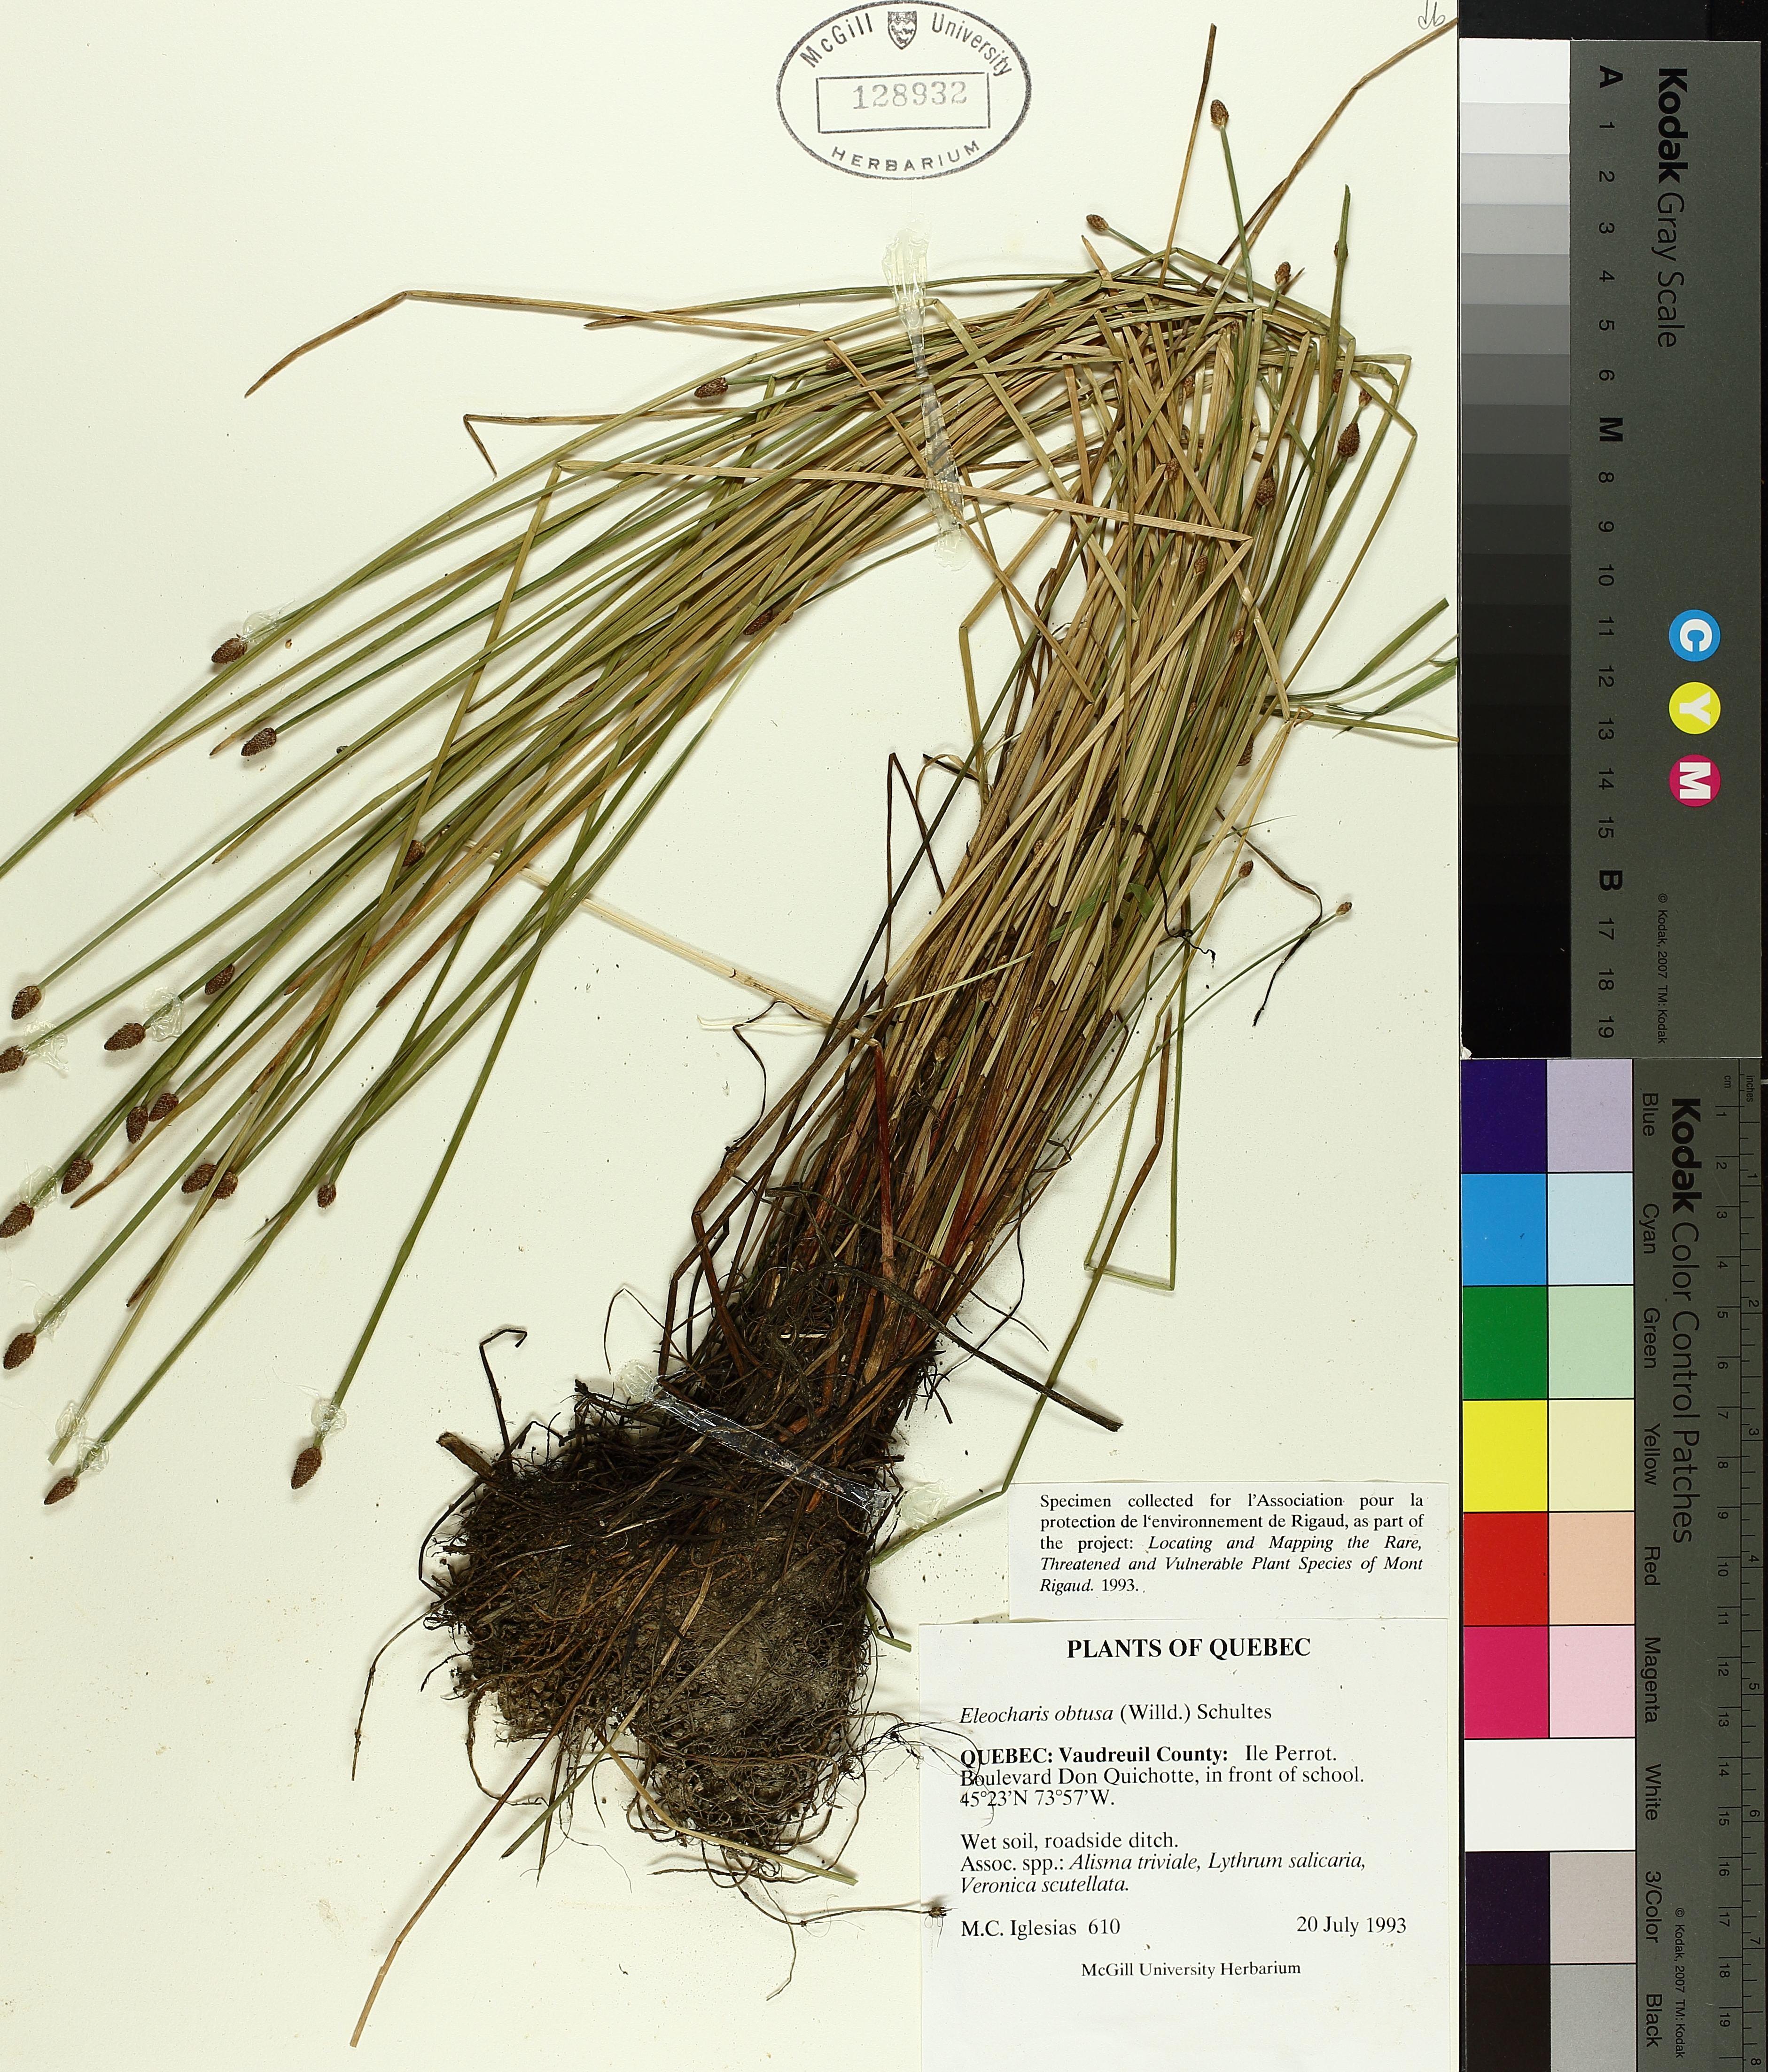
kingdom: Plantae
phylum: Tracheophyta
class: Liliopsida
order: Poales
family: Cyperaceae
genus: Eleocharis
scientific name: Eleocharis obtusa
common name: Blunt spikerush
